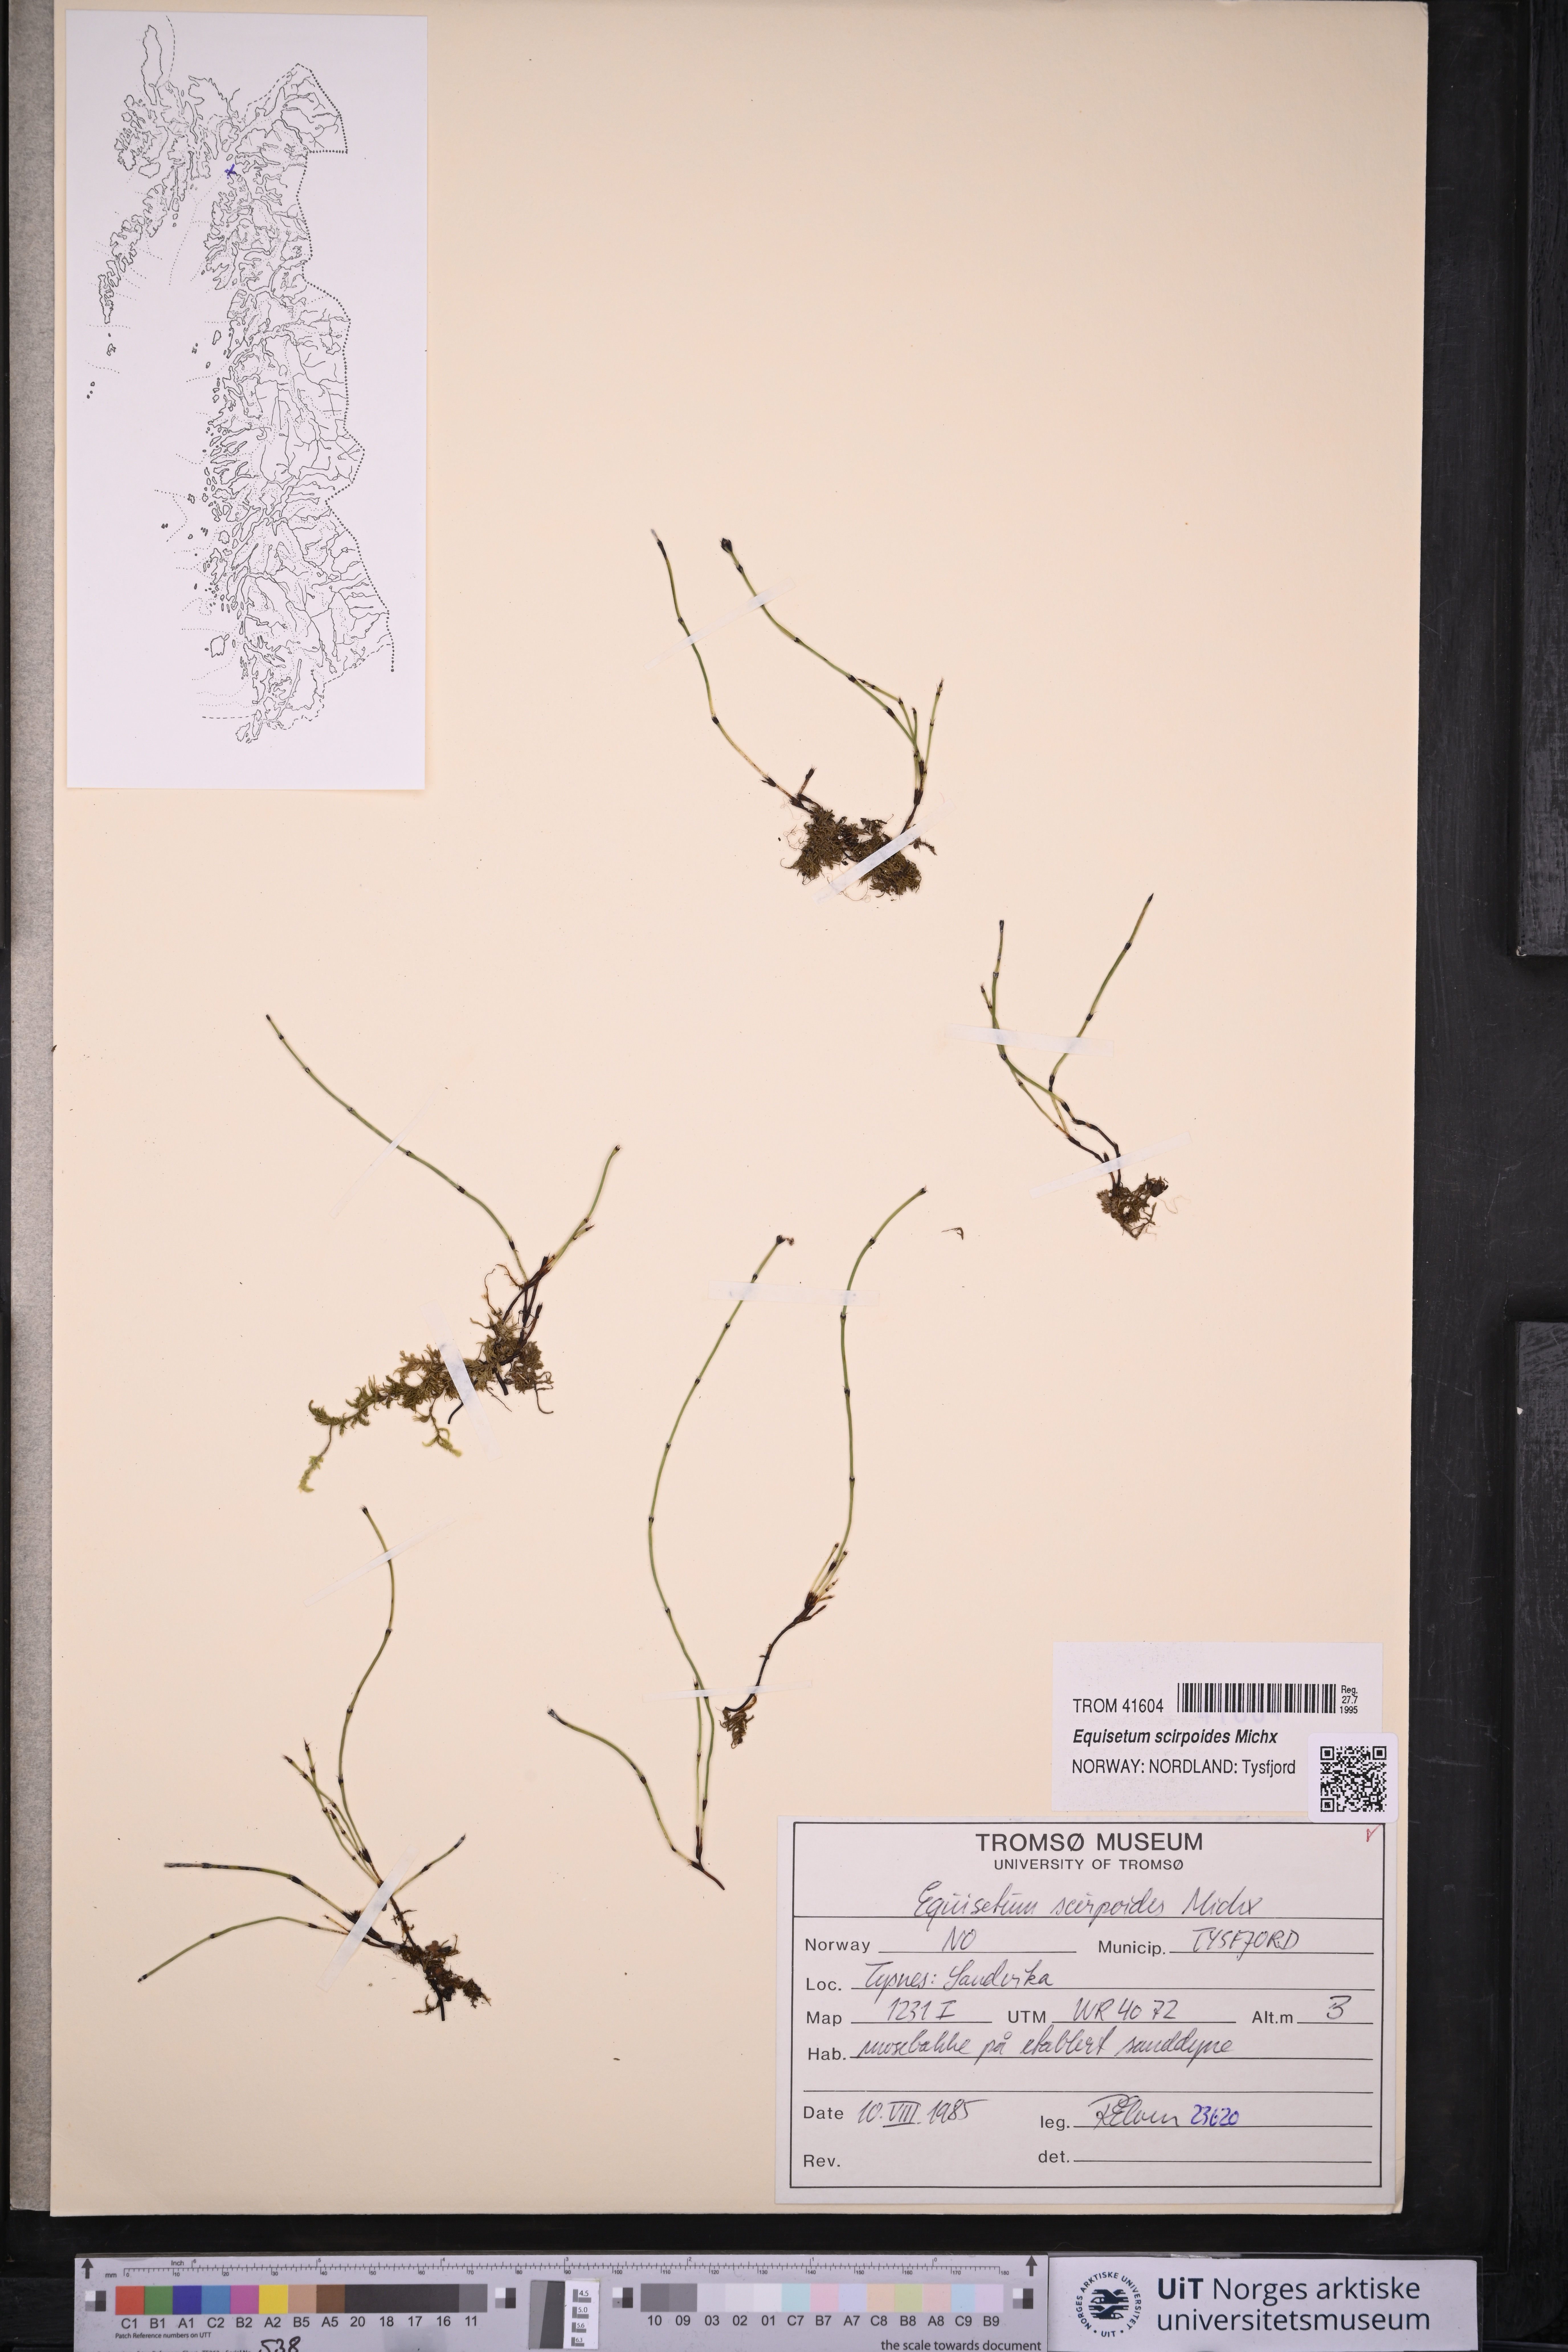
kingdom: Plantae
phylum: Tracheophyta
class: Polypodiopsida
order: Equisetales
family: Equisetaceae
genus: Equisetum
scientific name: Equisetum scirpoides
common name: Delicate horsetail
